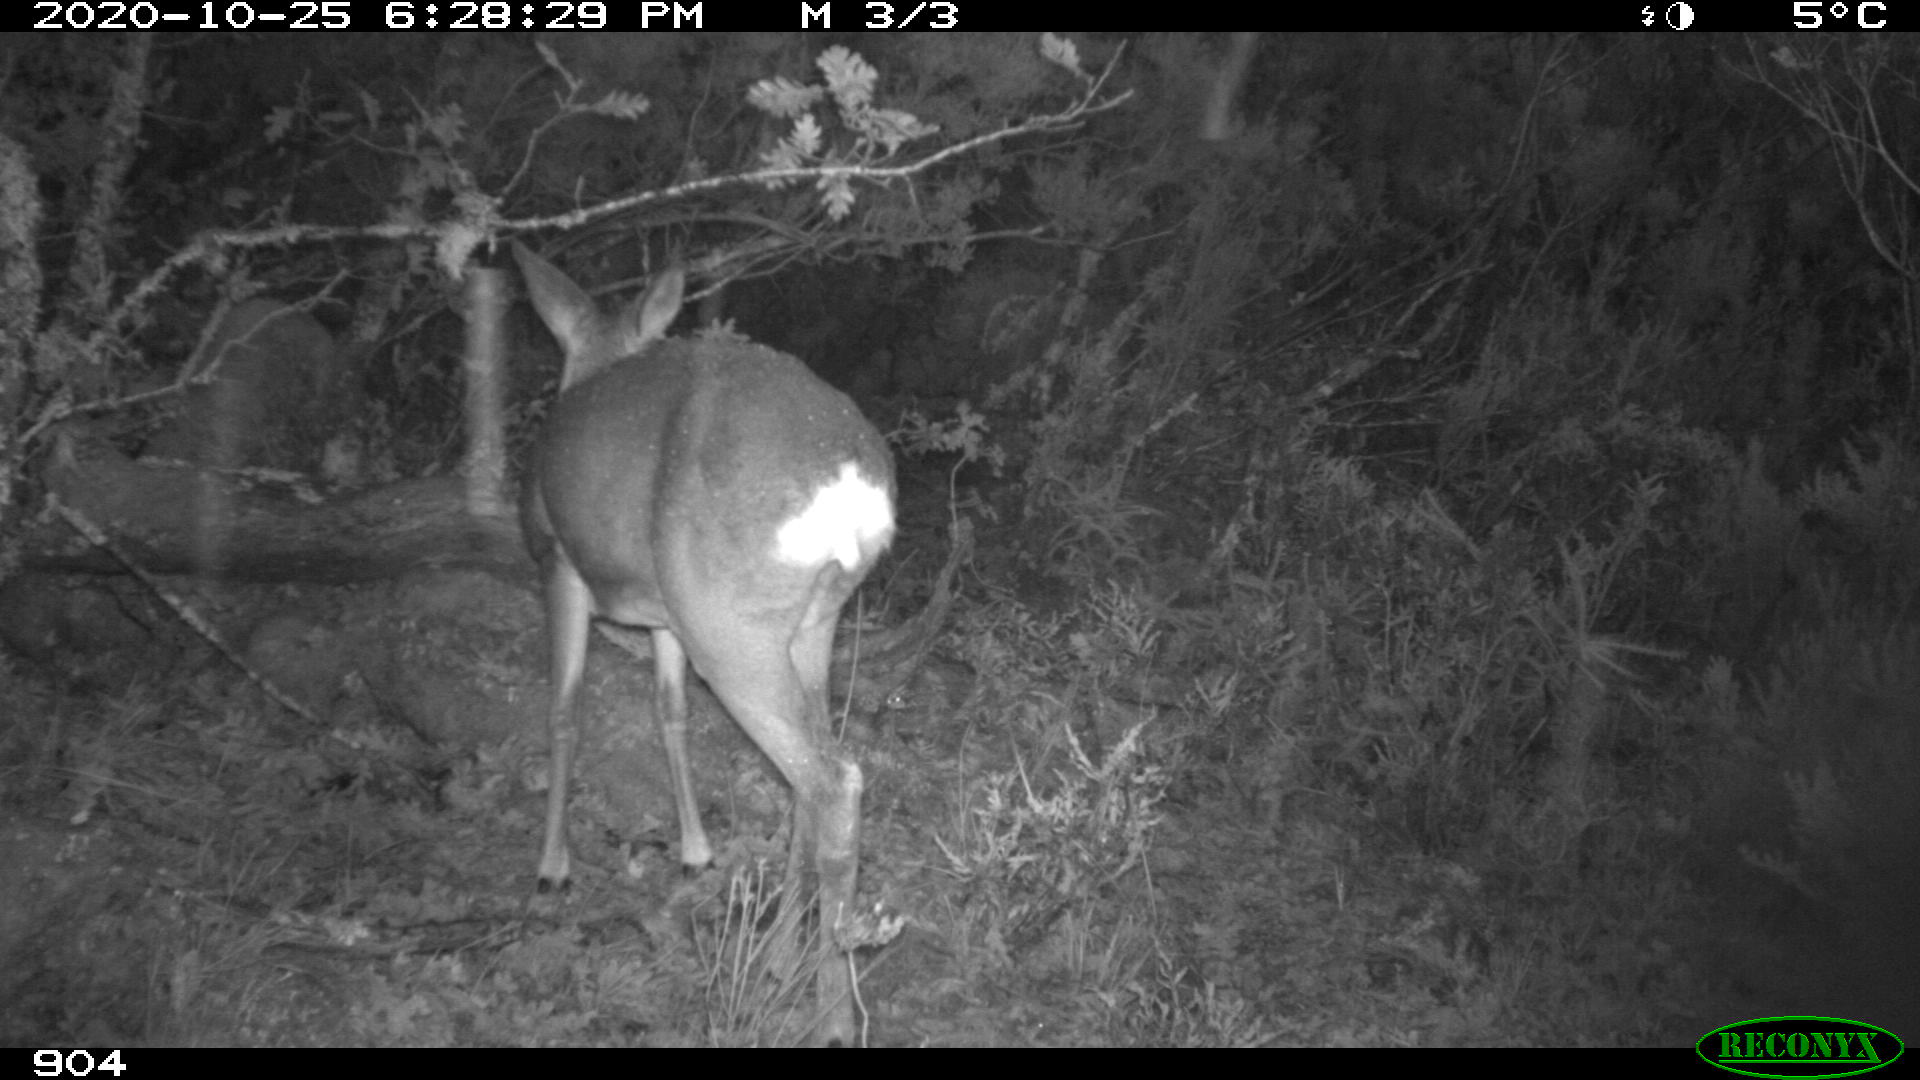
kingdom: Animalia
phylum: Chordata
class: Mammalia
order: Artiodactyla
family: Cervidae
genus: Capreolus
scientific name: Capreolus capreolus
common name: Western roe deer
